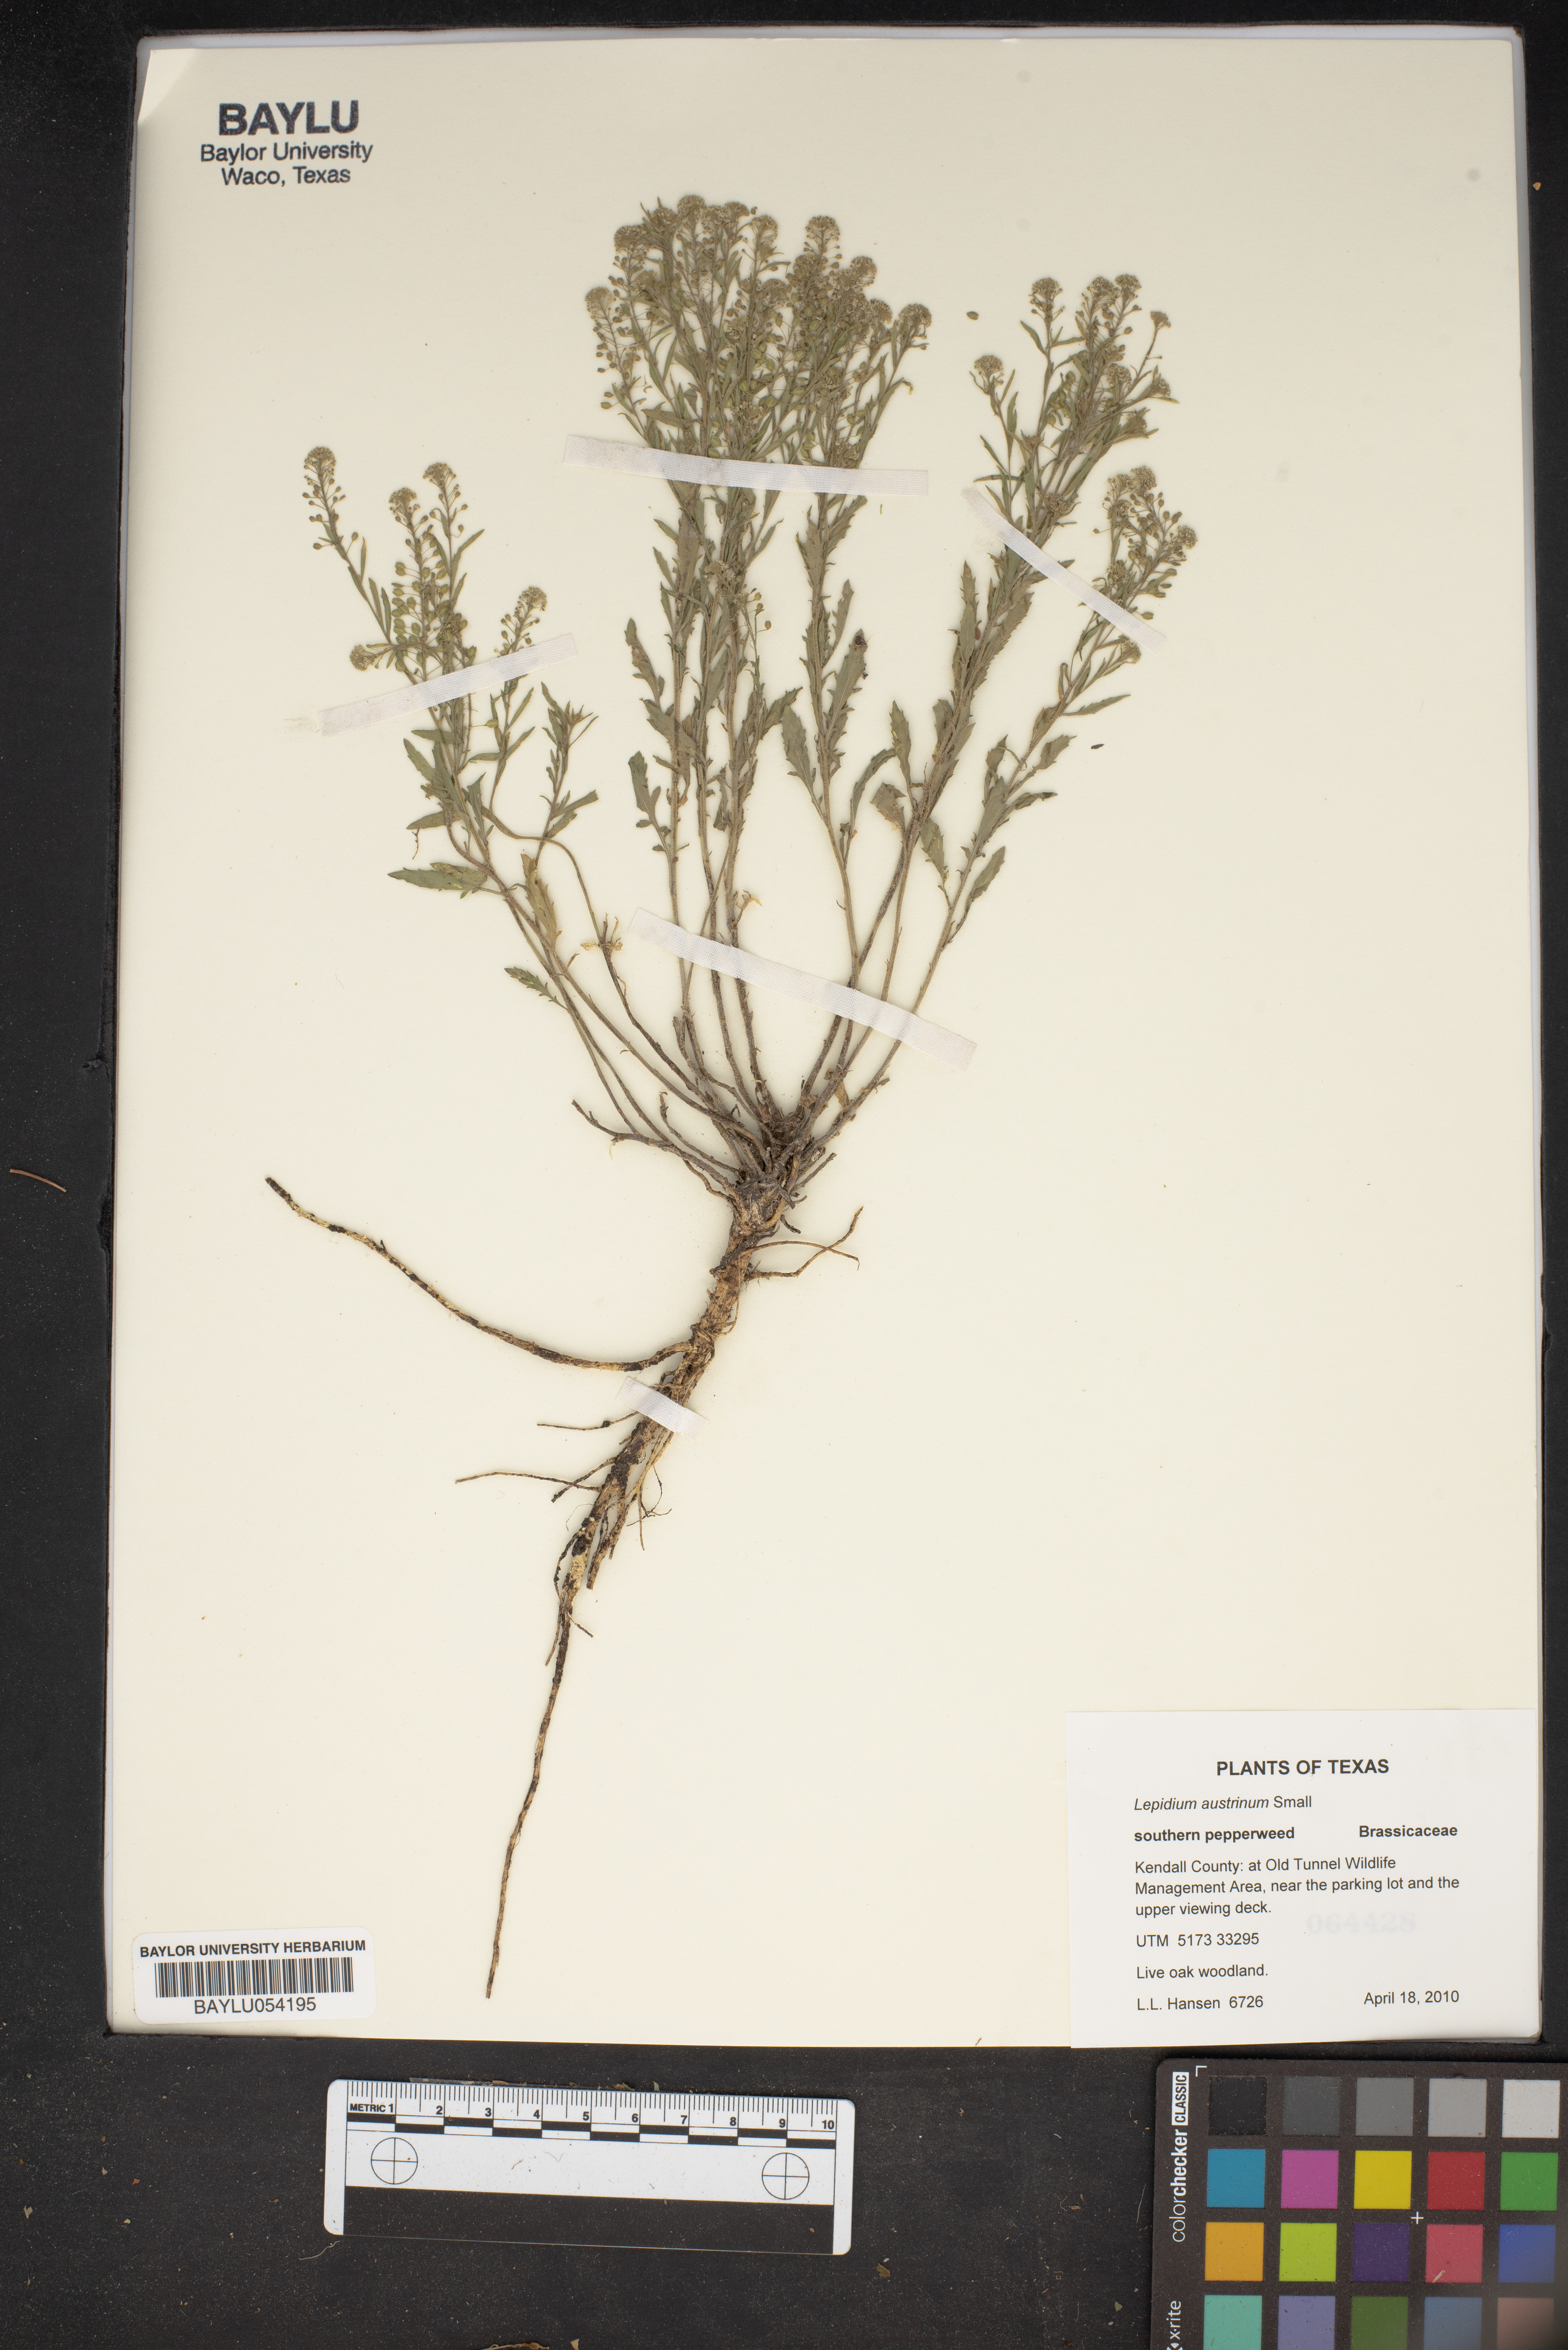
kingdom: Plantae
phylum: Tracheophyta
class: Magnoliopsida
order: Brassicales
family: Brassicaceae
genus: Lepidium
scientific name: Lepidium austrinum
